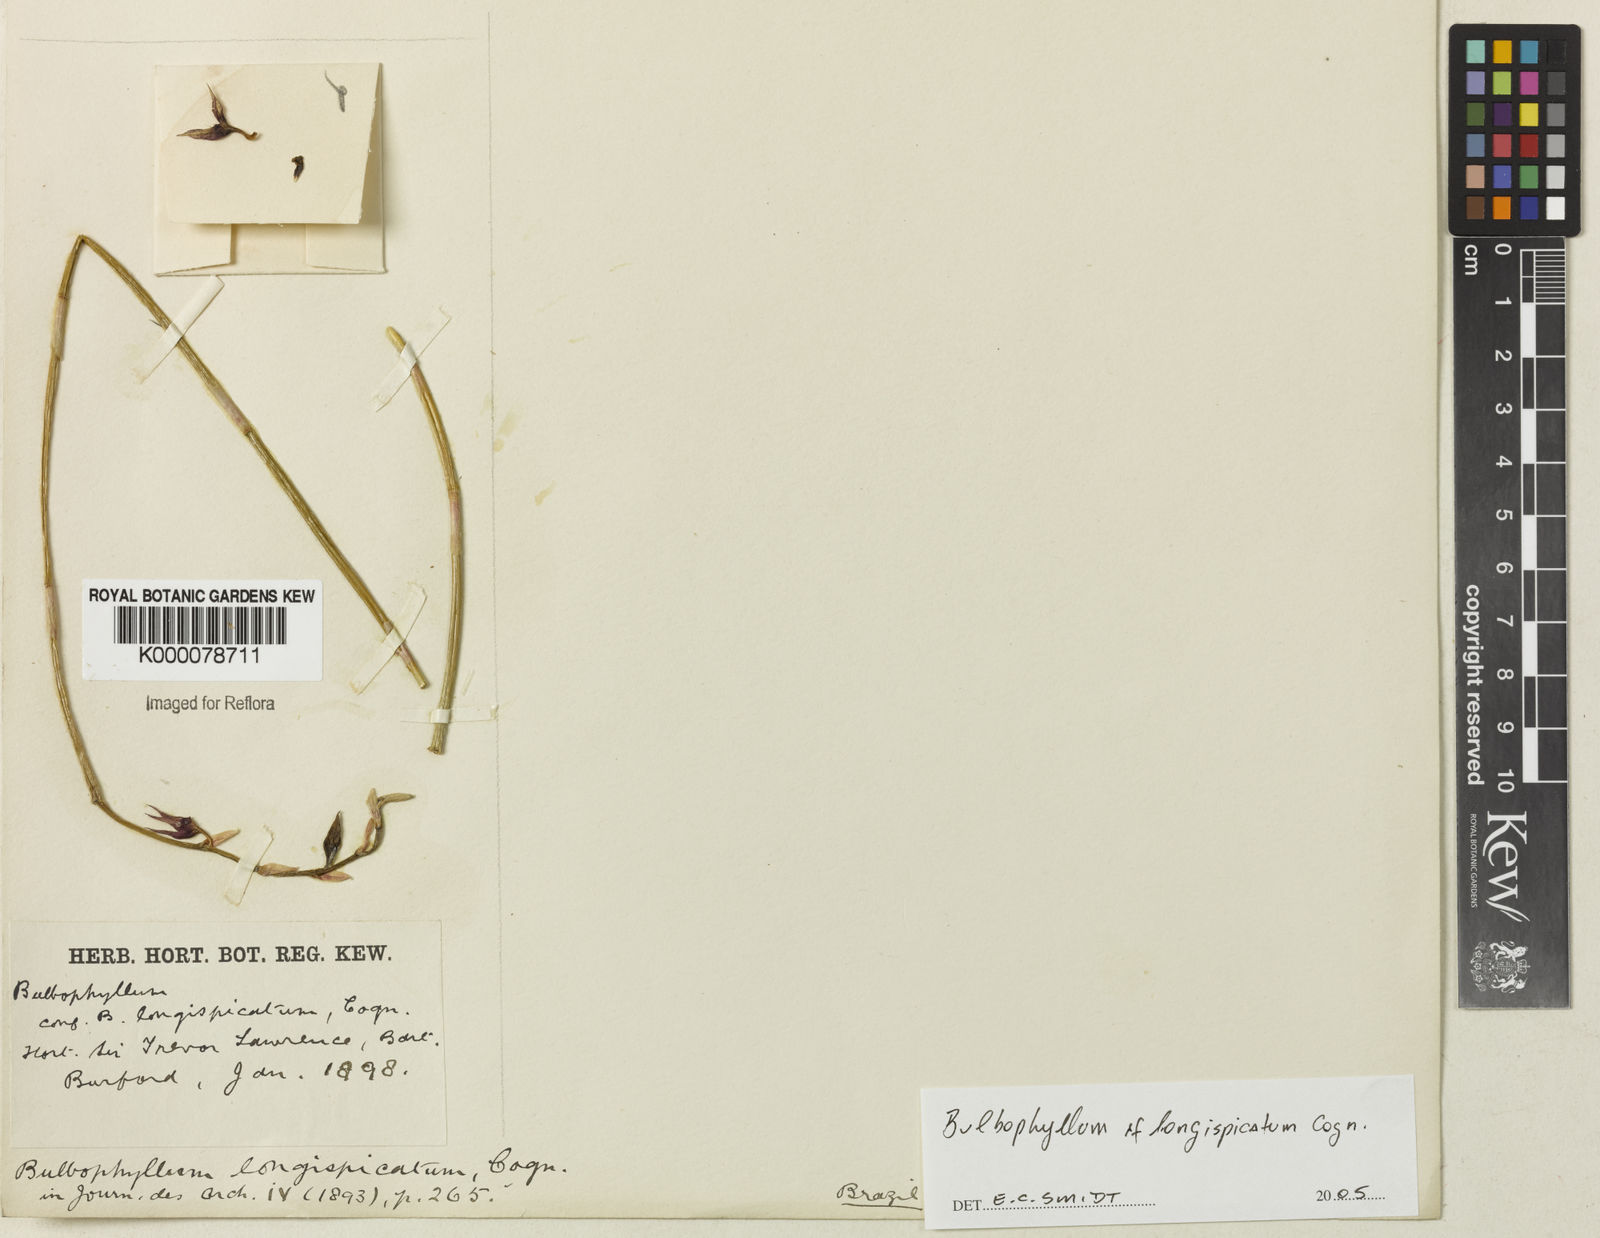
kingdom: Plantae
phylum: Tracheophyta
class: Liliopsida
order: Asparagales
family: Orchidaceae
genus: Bulbophyllum
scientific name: Bulbophyllum exaltatum
